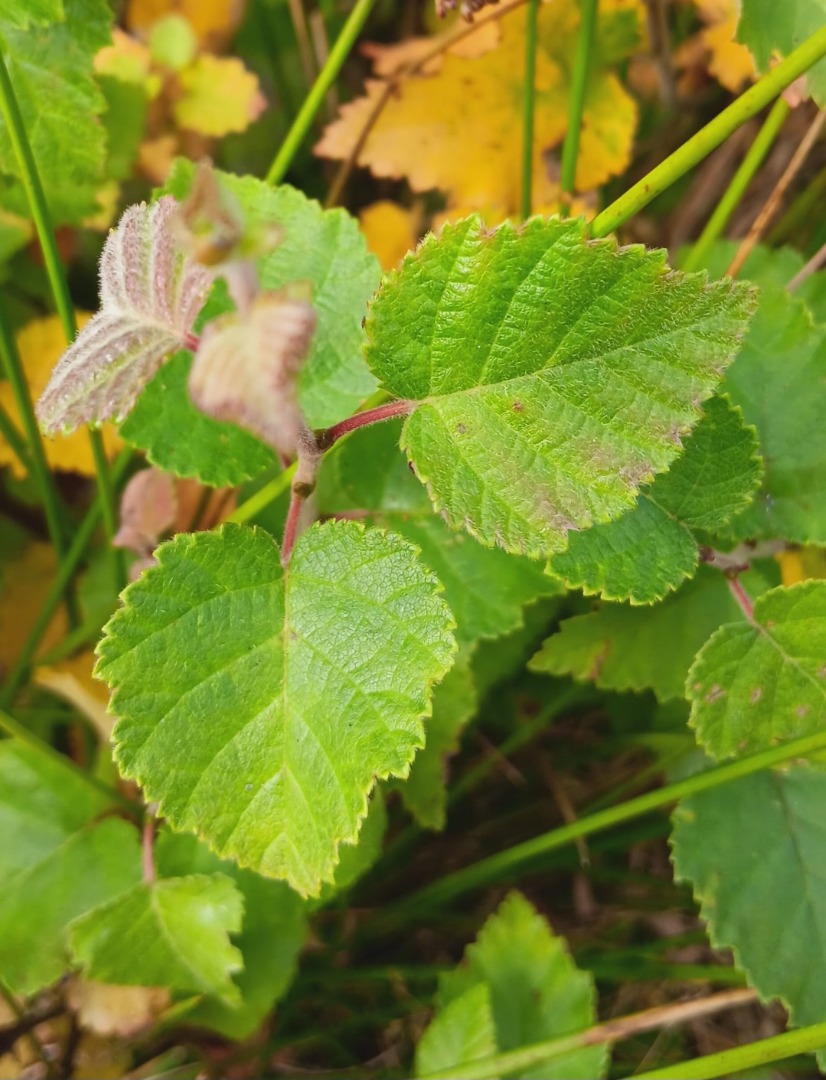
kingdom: Plantae
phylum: Tracheophyta
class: Magnoliopsida
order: Fagales
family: Betulaceae
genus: Betula
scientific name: Betula pubescens
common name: Dun-birk
